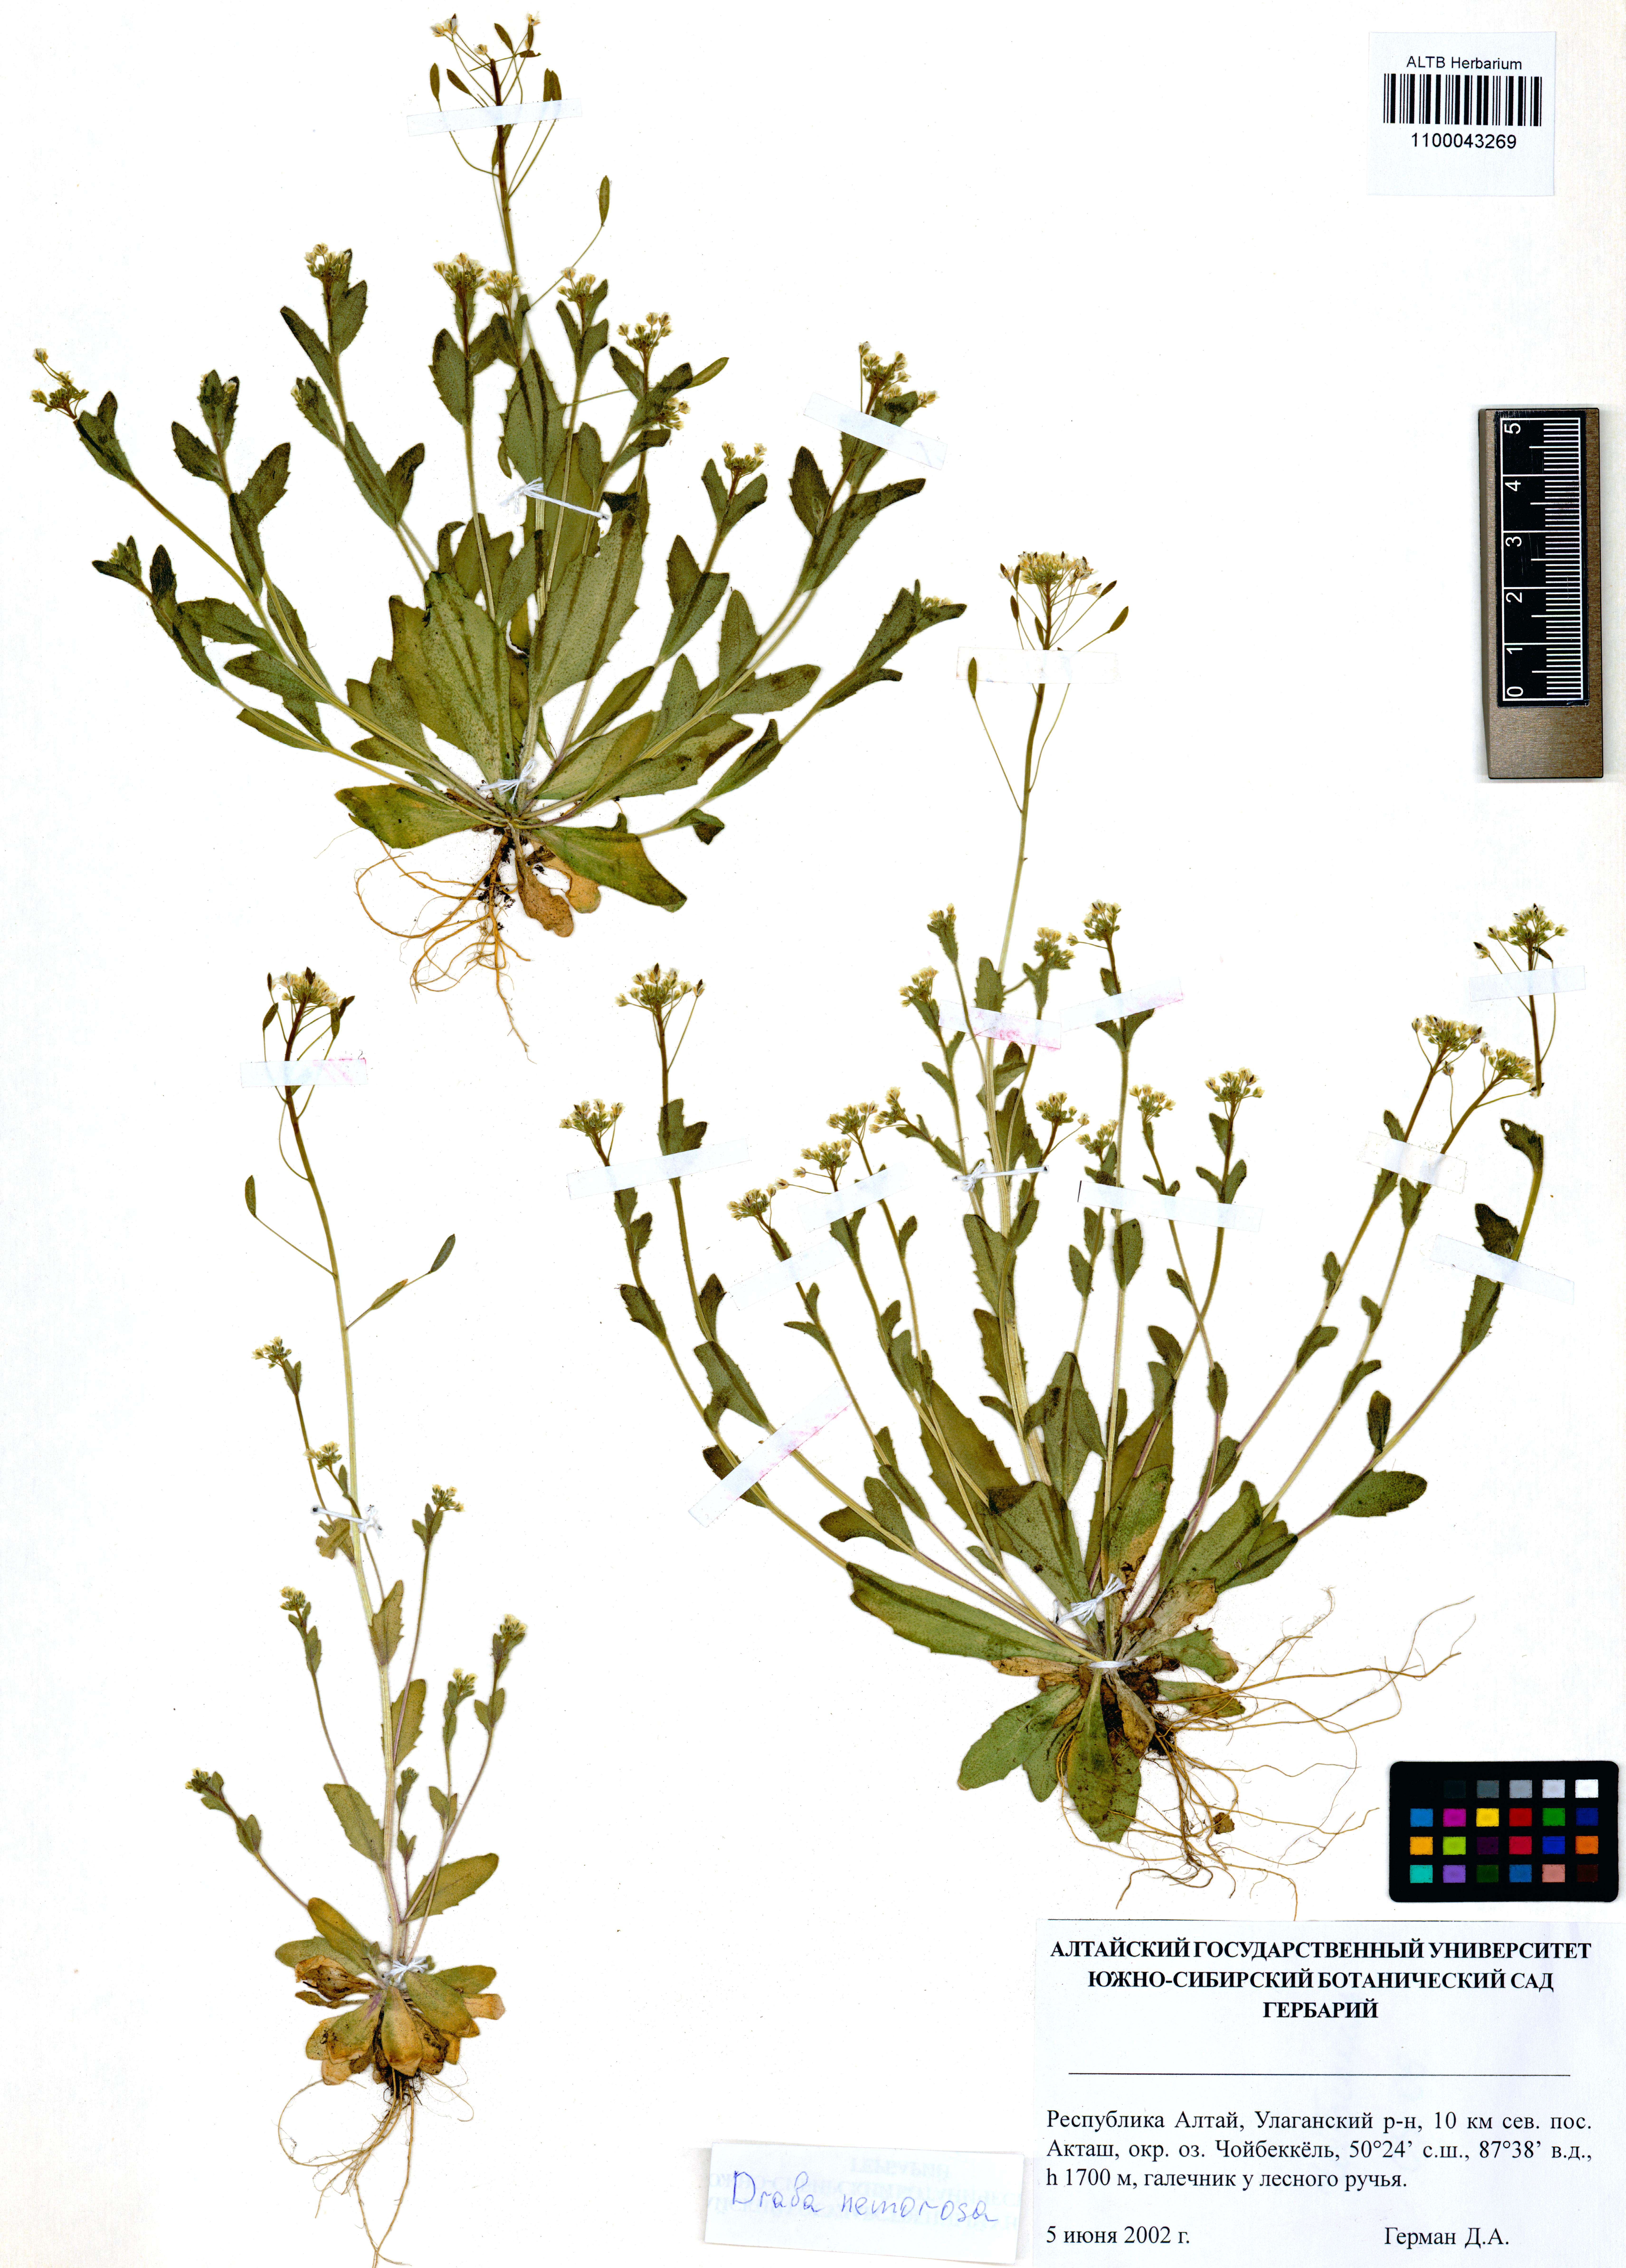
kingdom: Plantae
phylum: Tracheophyta
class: Magnoliopsida
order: Brassicales
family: Brassicaceae
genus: Draba
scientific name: Draba nemorosa
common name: Wood whitlow-grass
